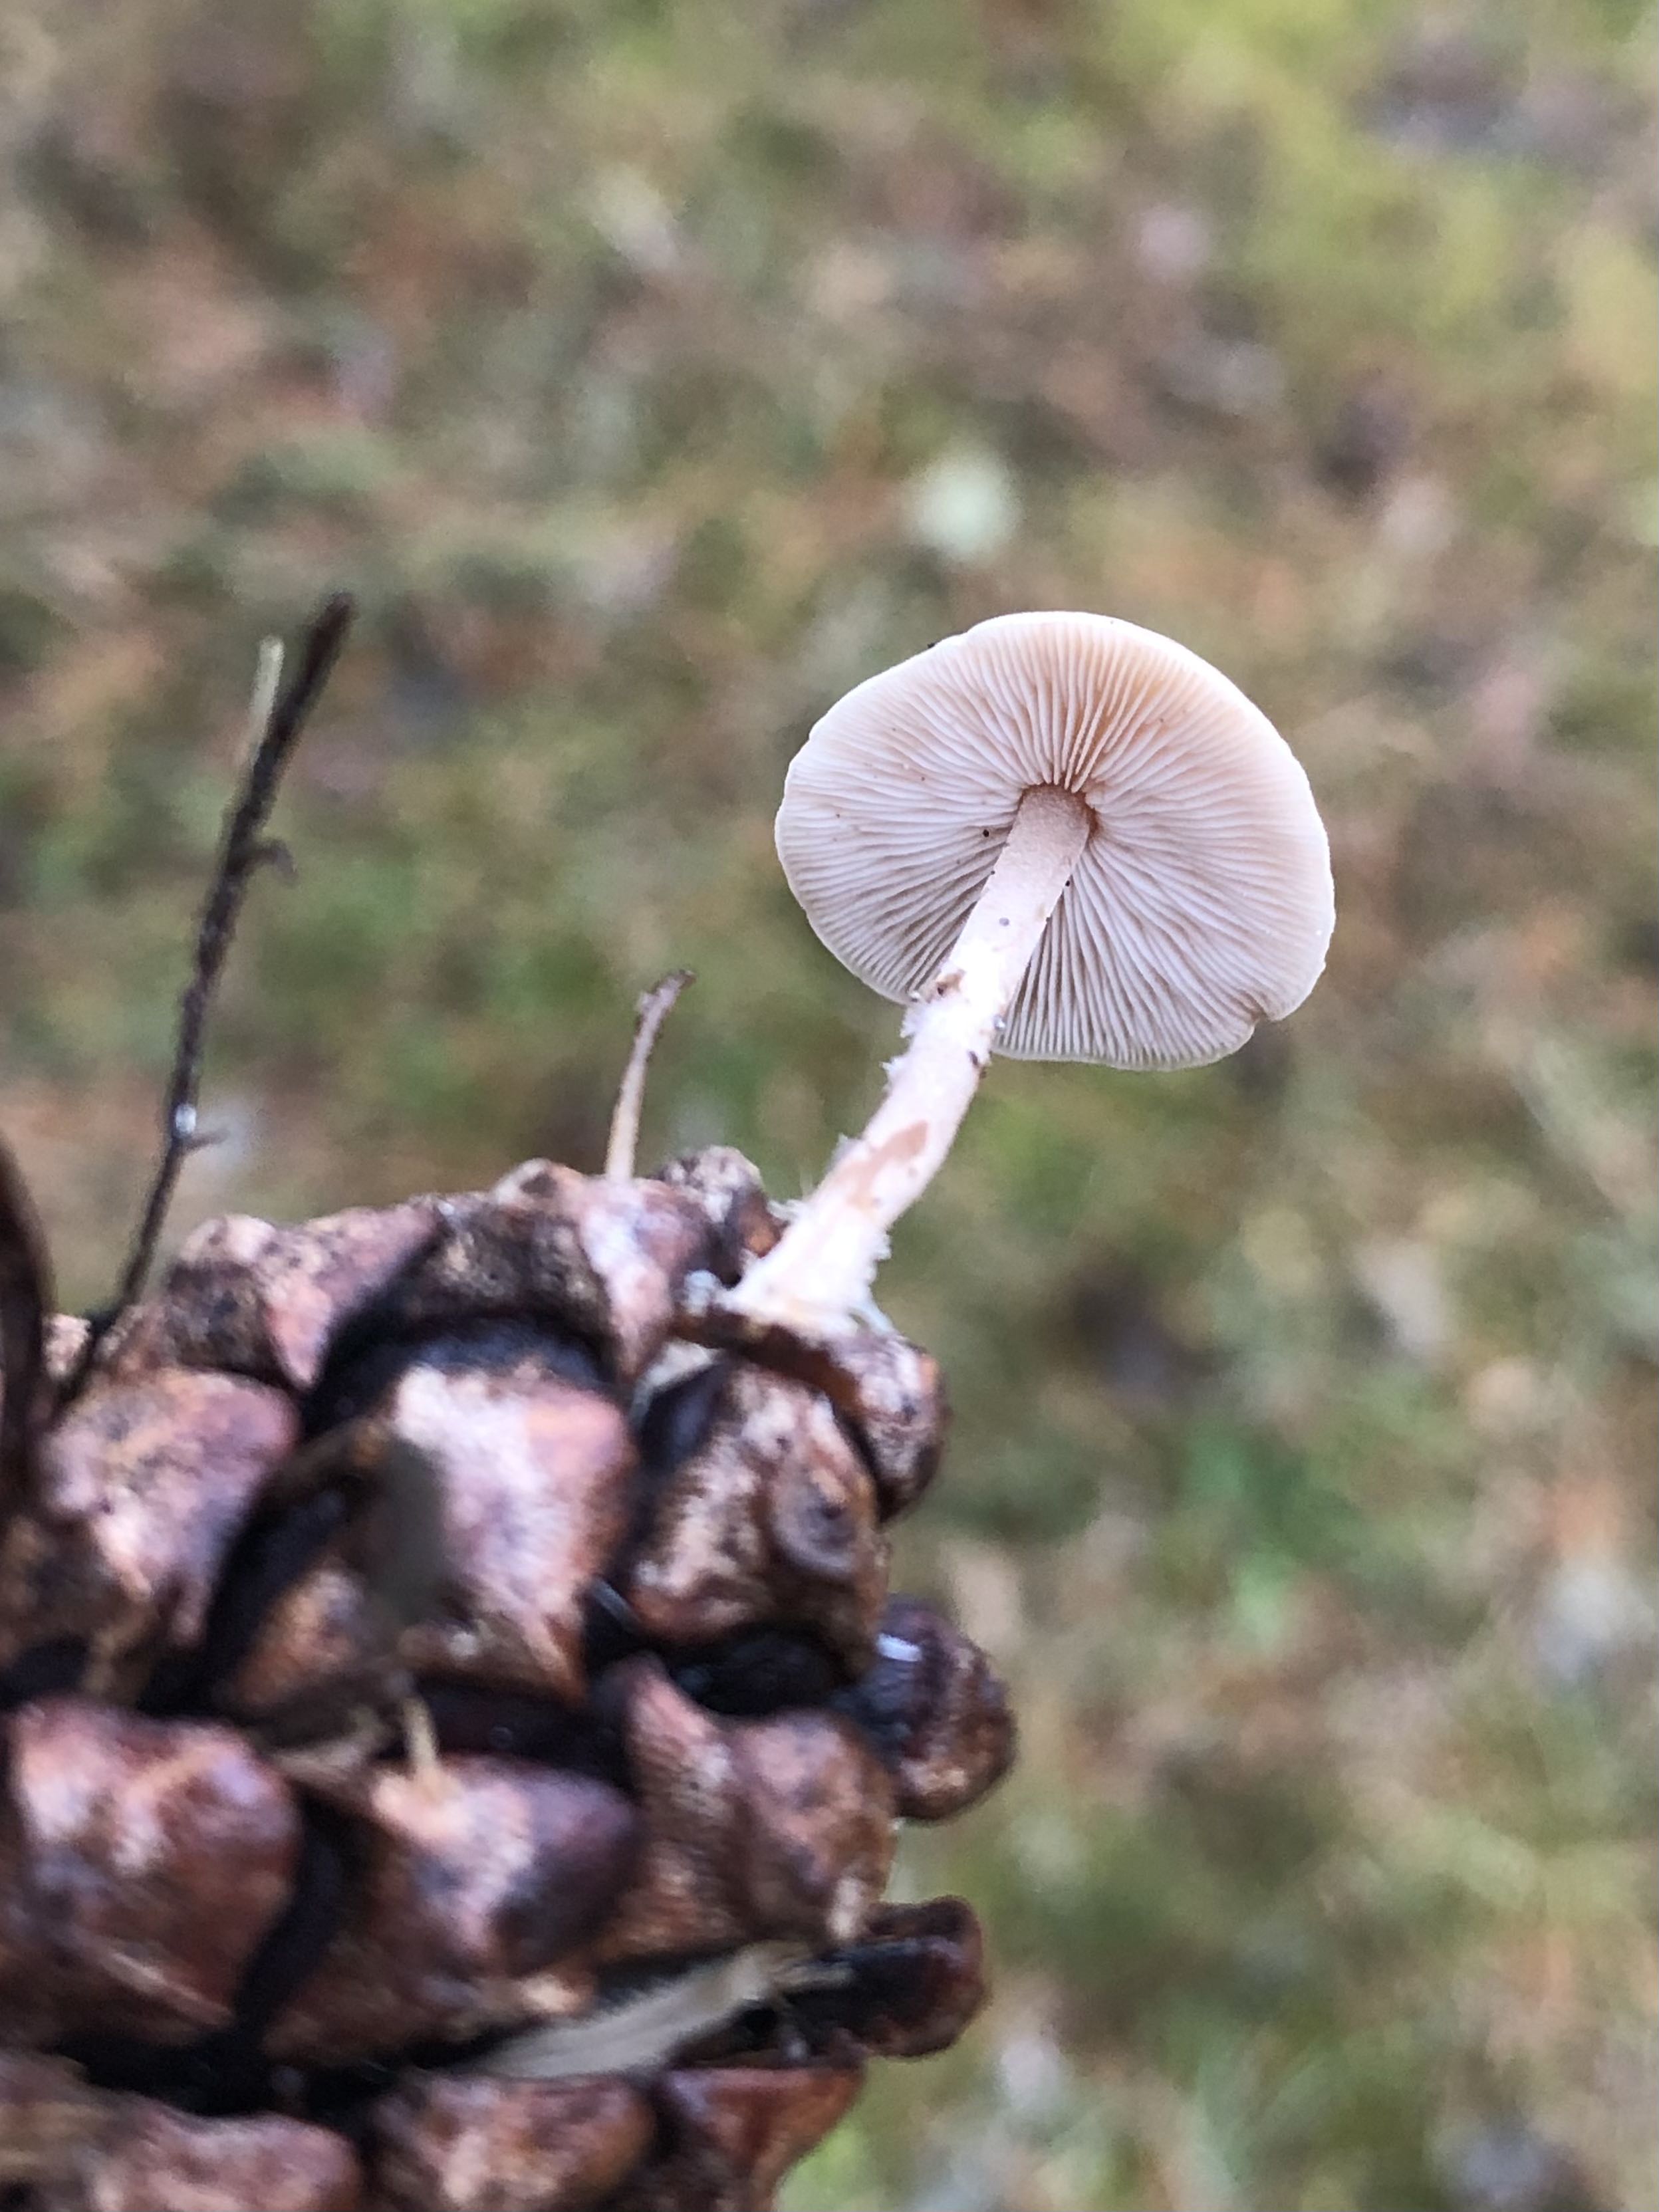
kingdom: Fungi
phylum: Basidiomycota
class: Agaricomycetes
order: Agaricales
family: Marasmiaceae
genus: Baeospora
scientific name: Baeospora myosura
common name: koglebruskhat
